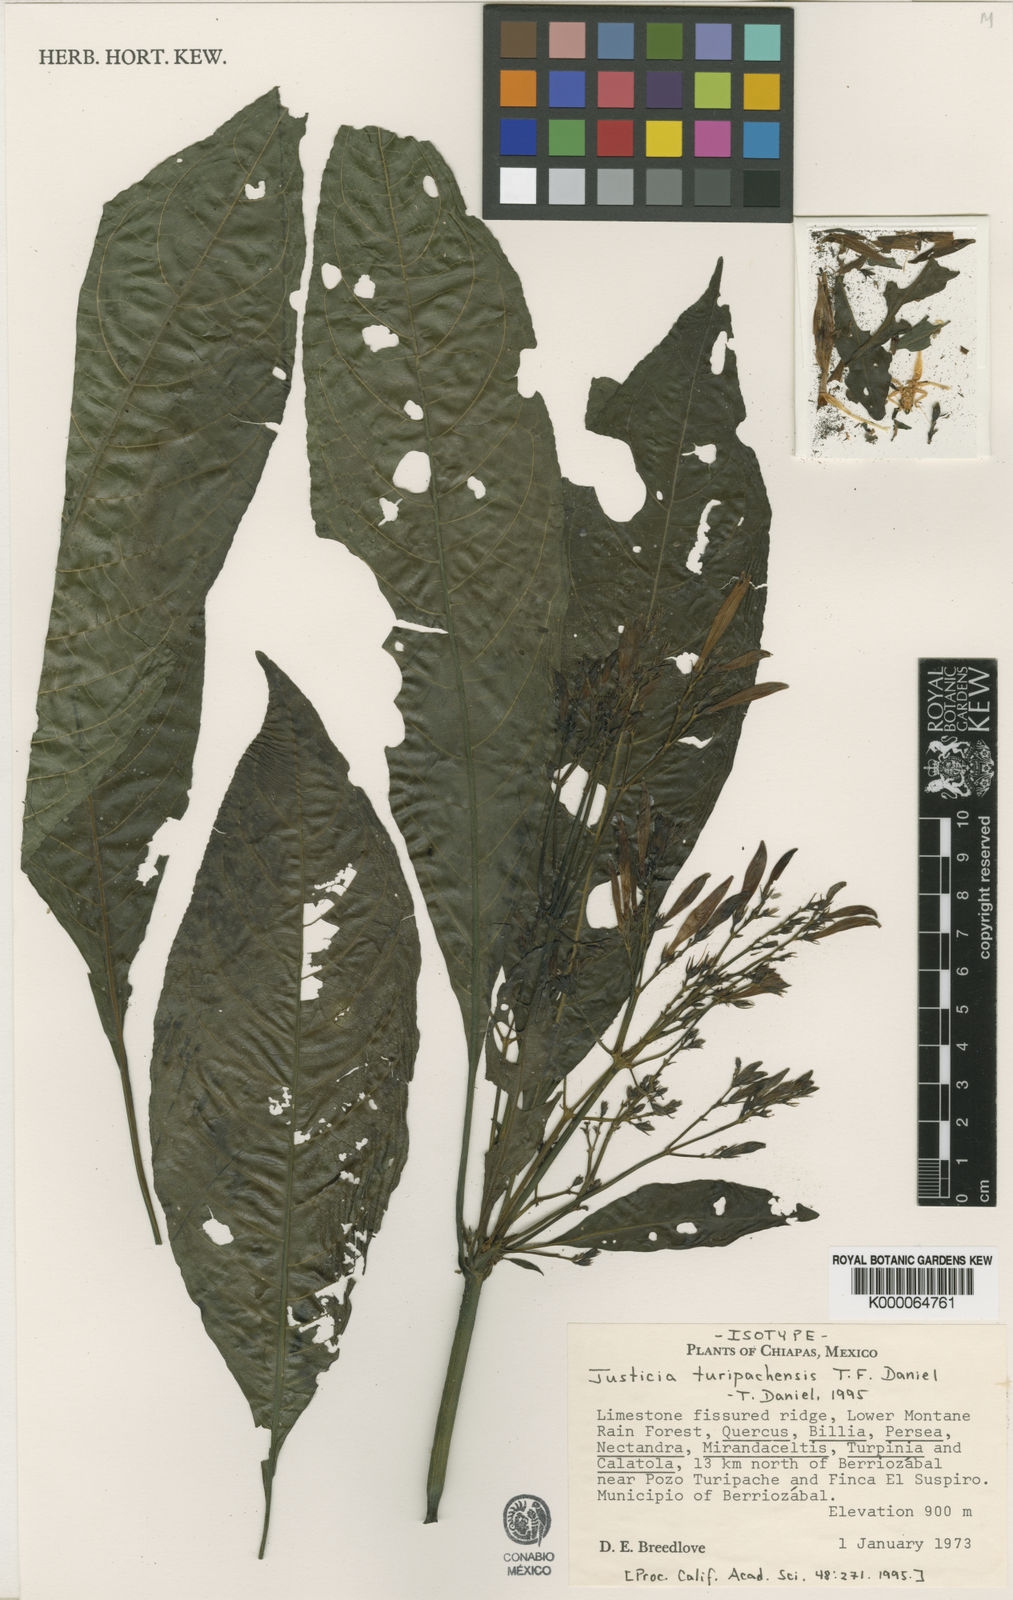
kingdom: Plantae
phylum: Tracheophyta
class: Magnoliopsida
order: Lamiales
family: Acanthaceae
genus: Justicia
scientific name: Justicia turipachensis
